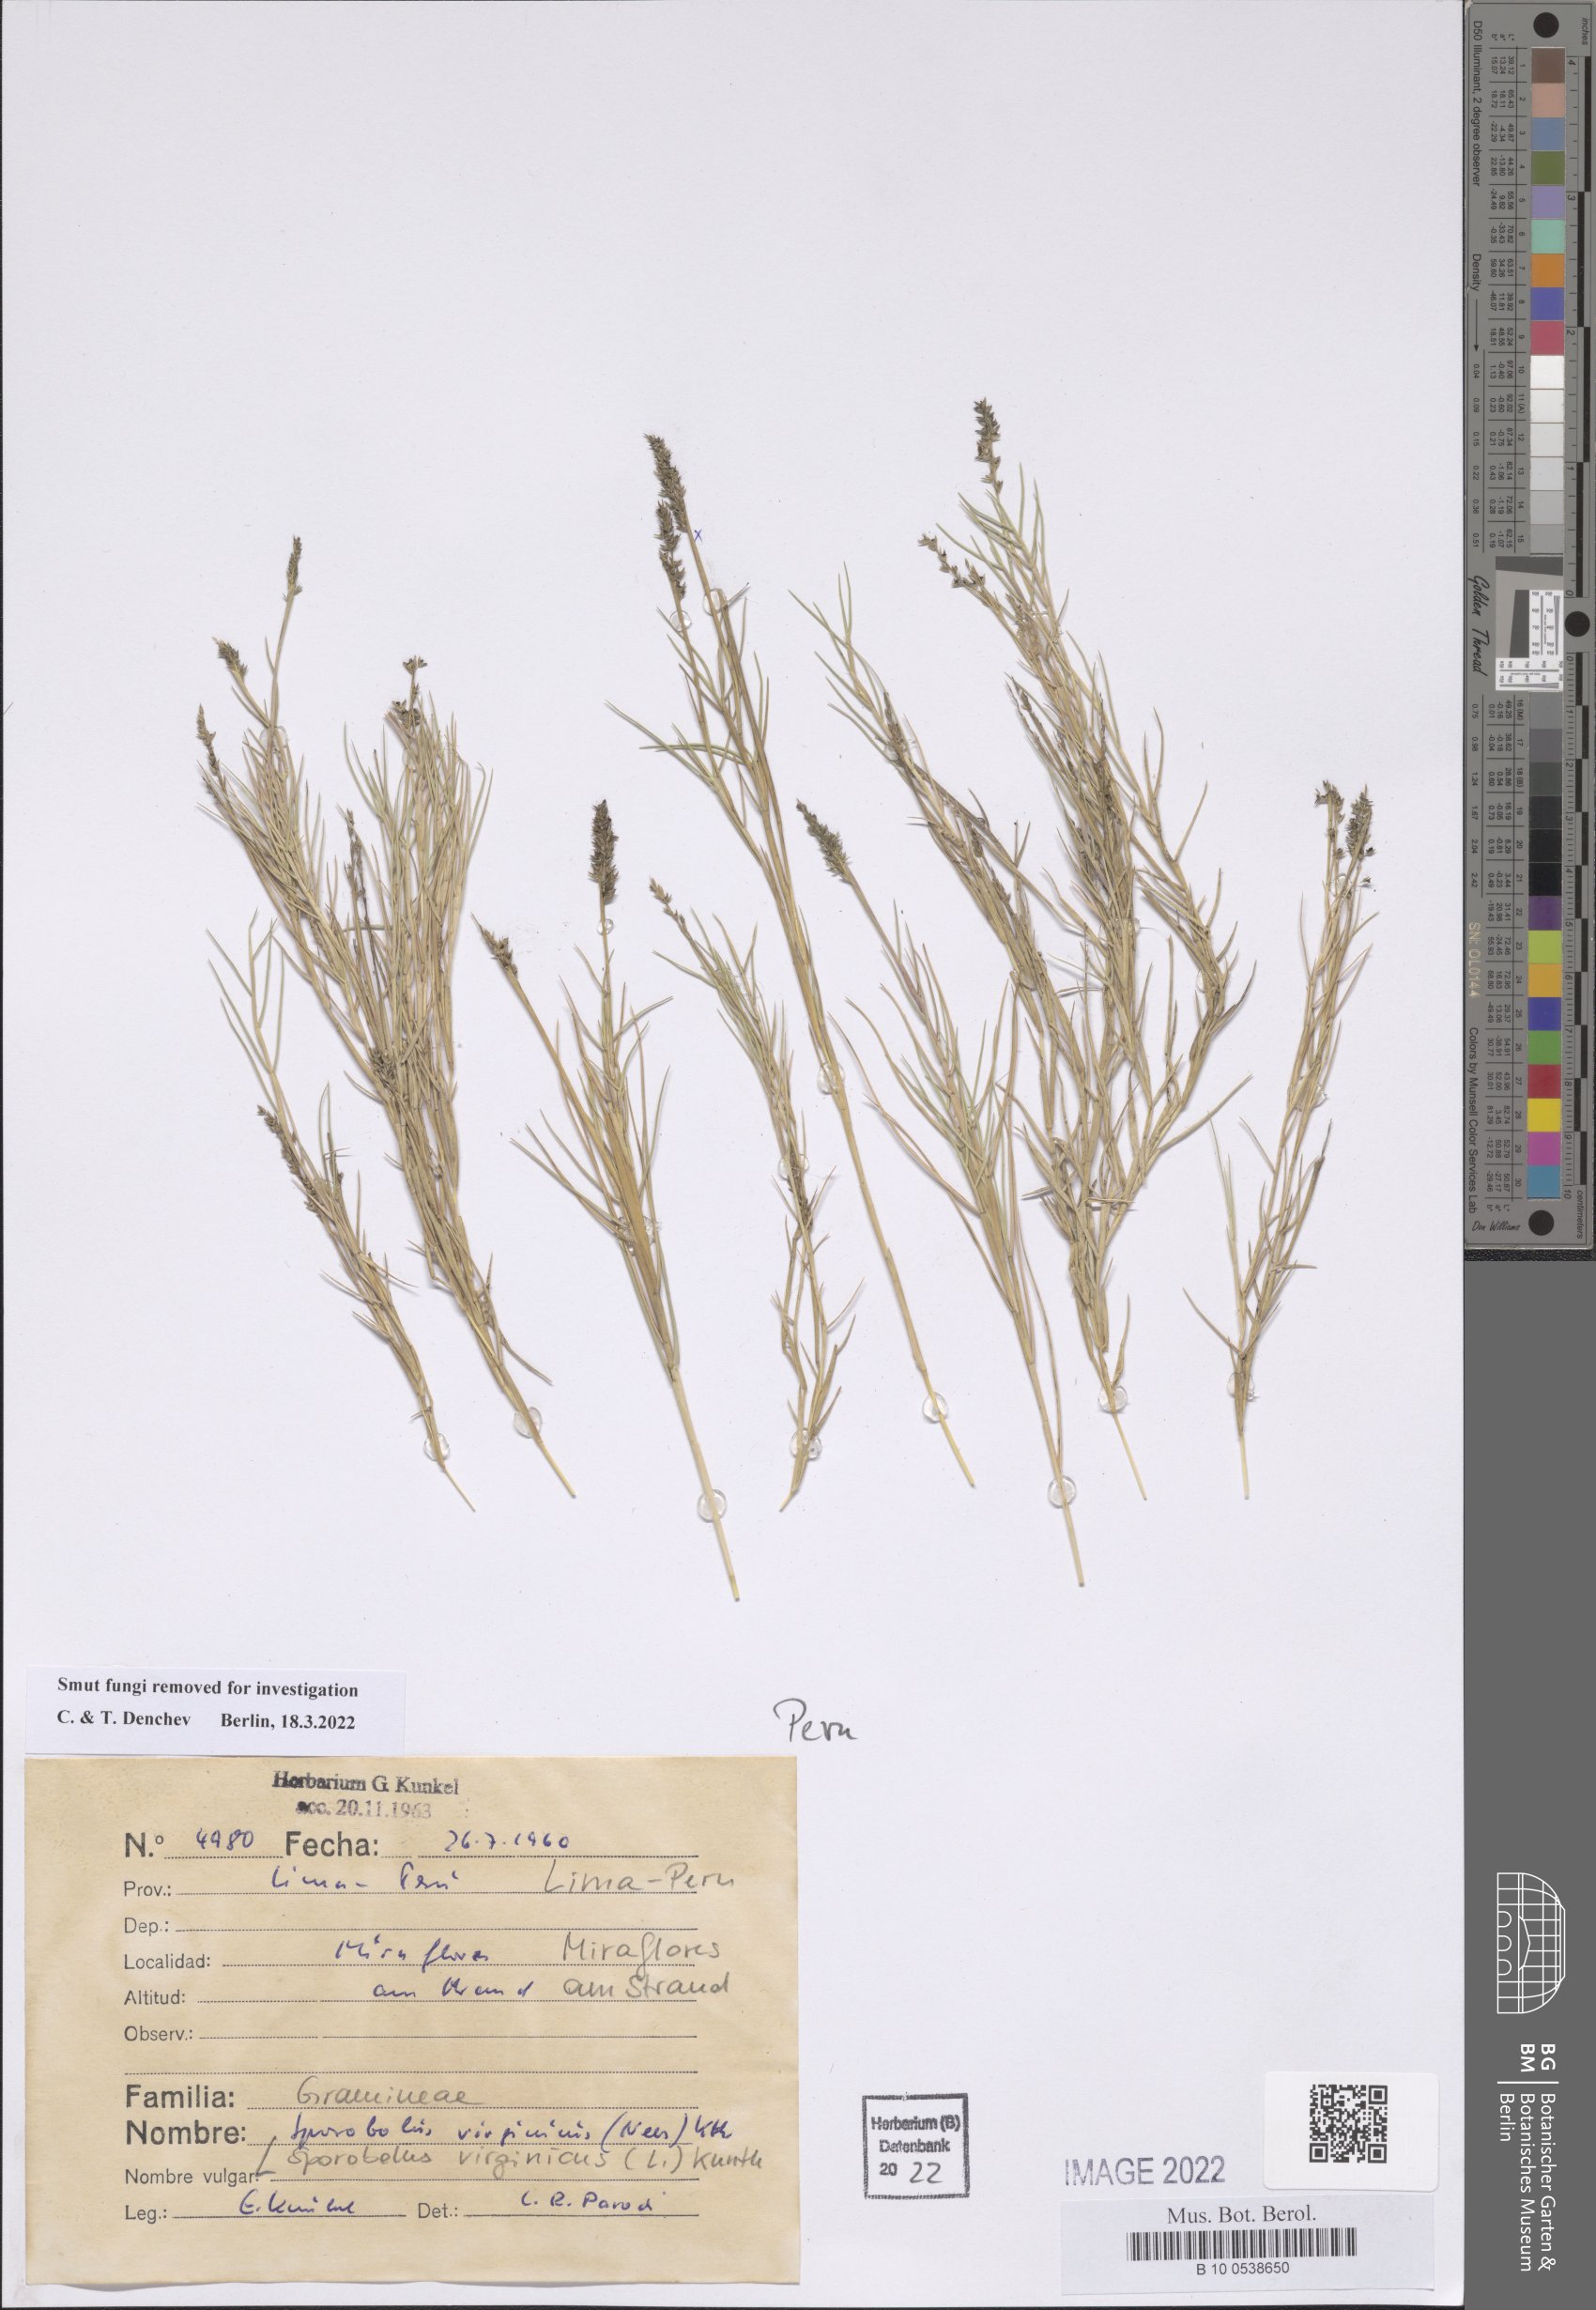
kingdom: Plantae
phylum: Tracheophyta
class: Liliopsida
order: Poales
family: Poaceae
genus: Sporobolus
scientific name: Sporobolus virginicus
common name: Beach dropseed
